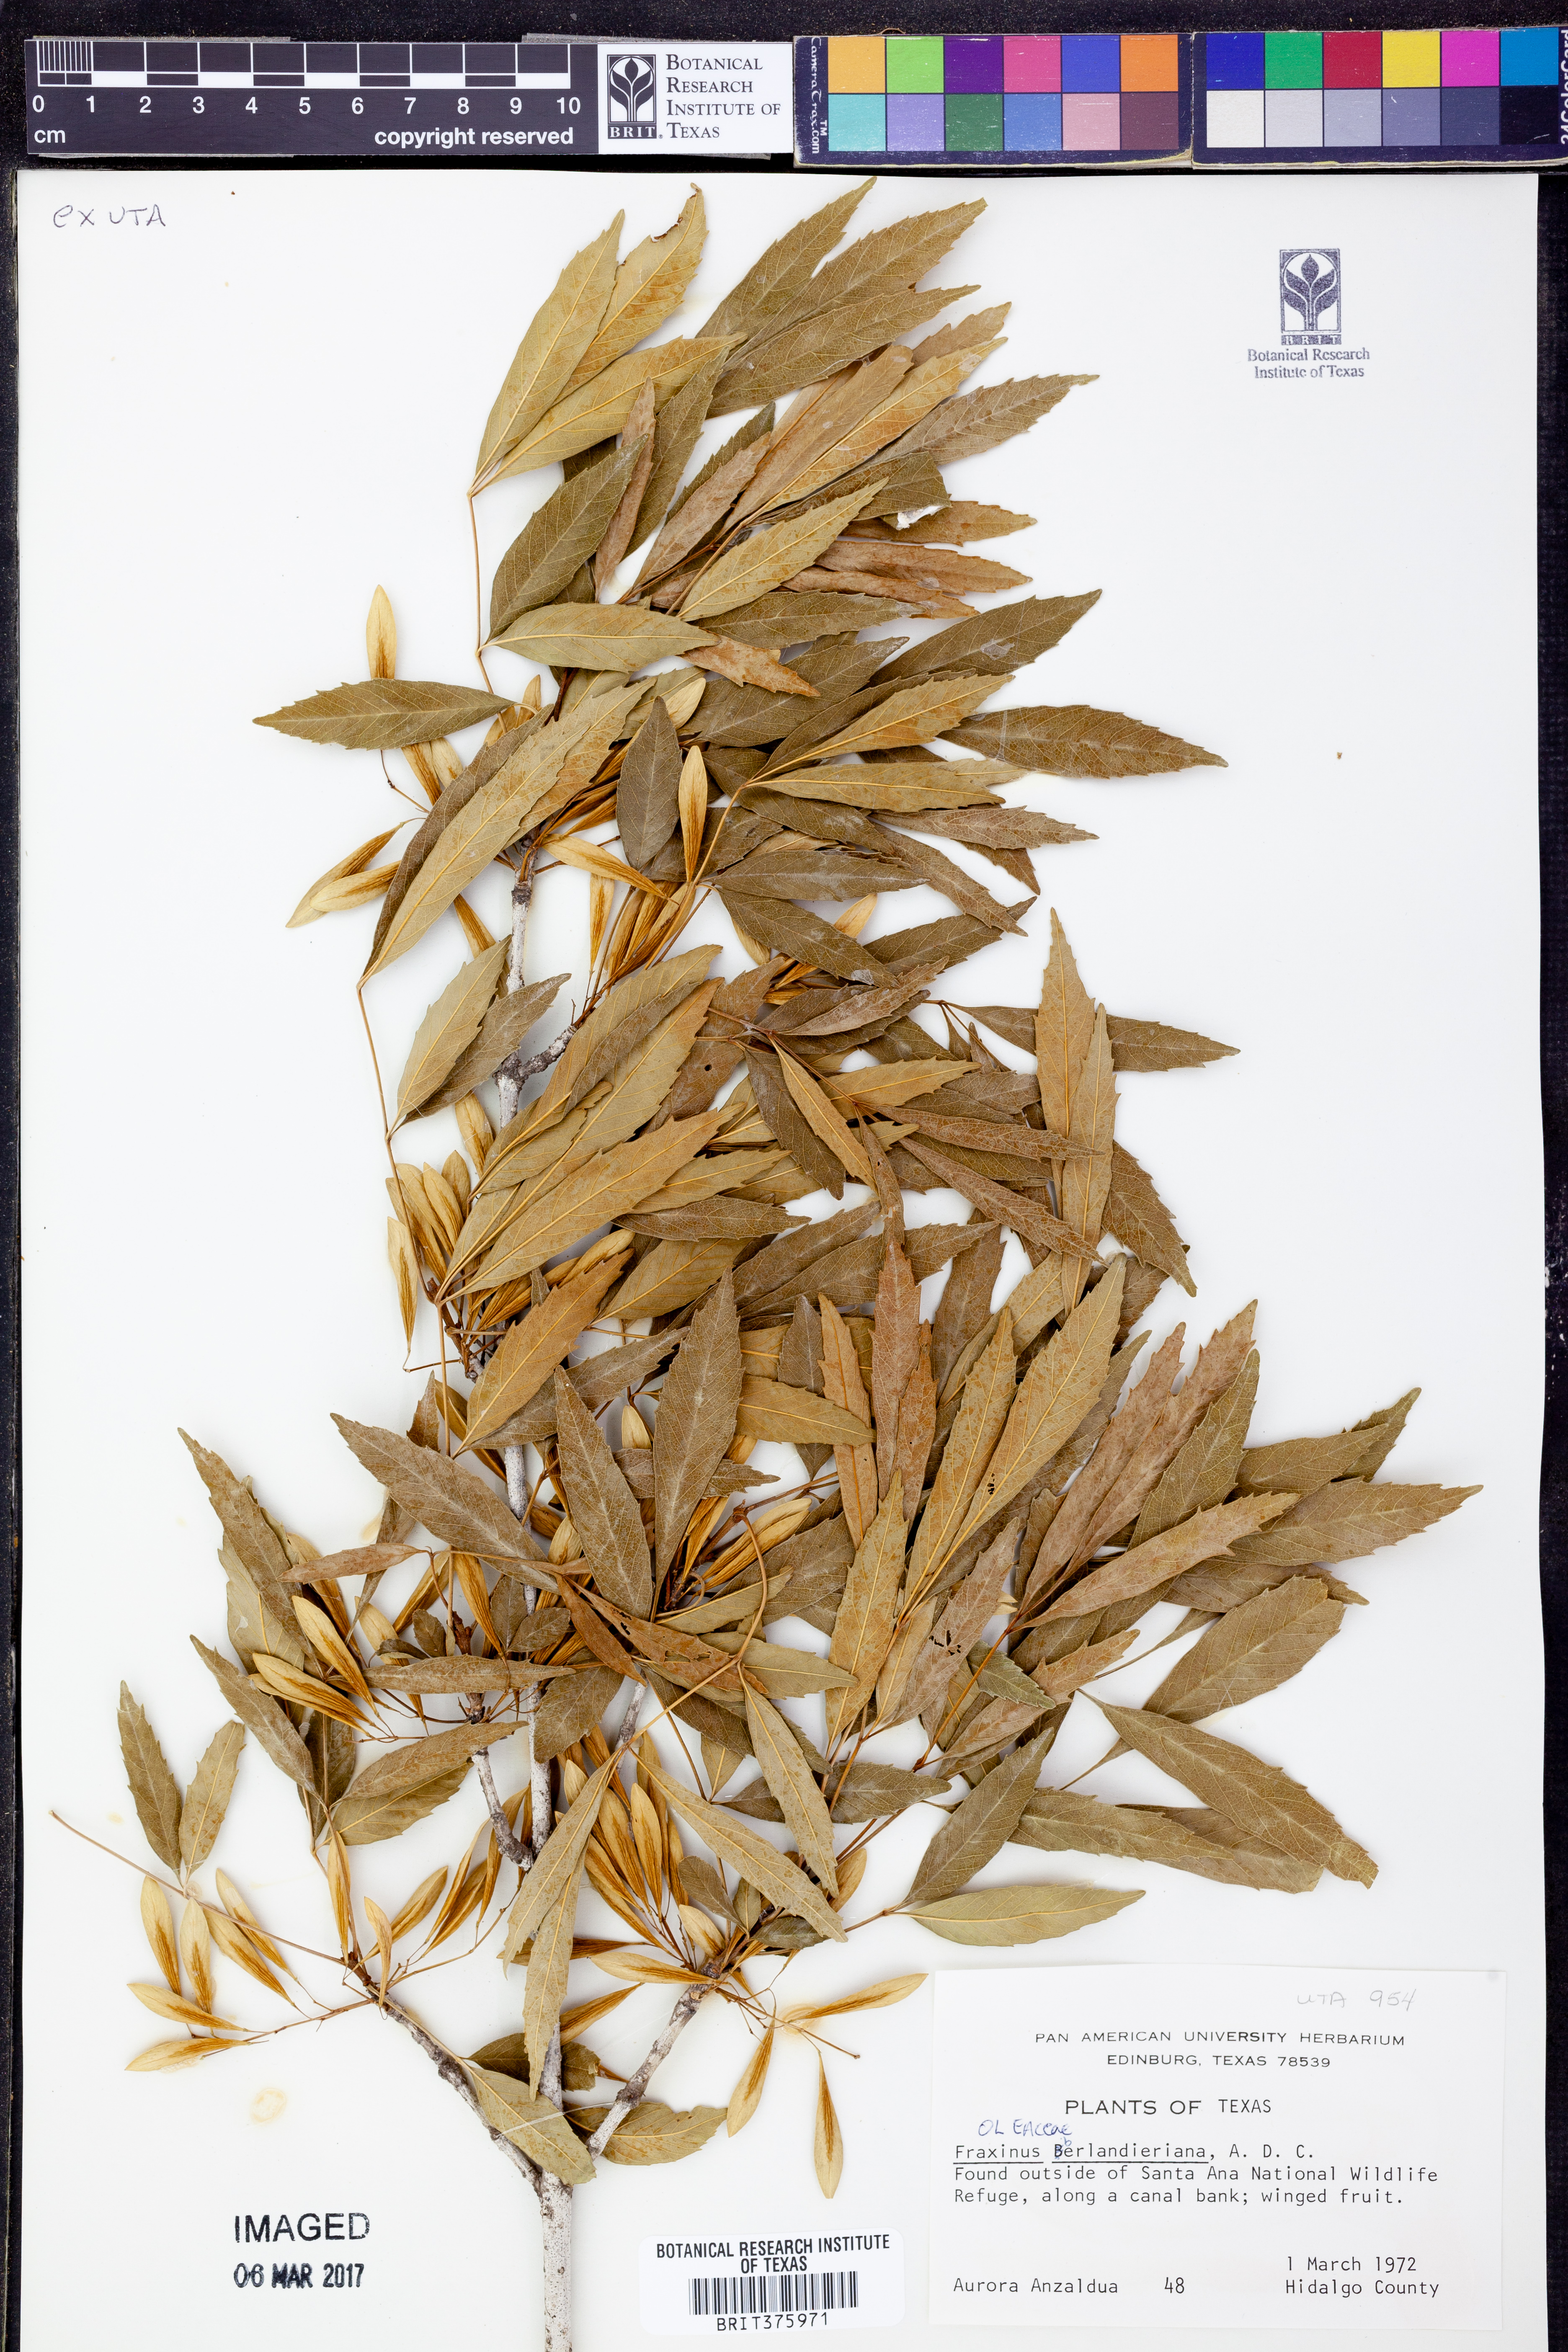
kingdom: Plantae
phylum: Tracheophyta
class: Magnoliopsida
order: Lamiales
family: Oleaceae
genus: Fraxinus
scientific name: Fraxinus berlandieriana
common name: Berlandier ash
